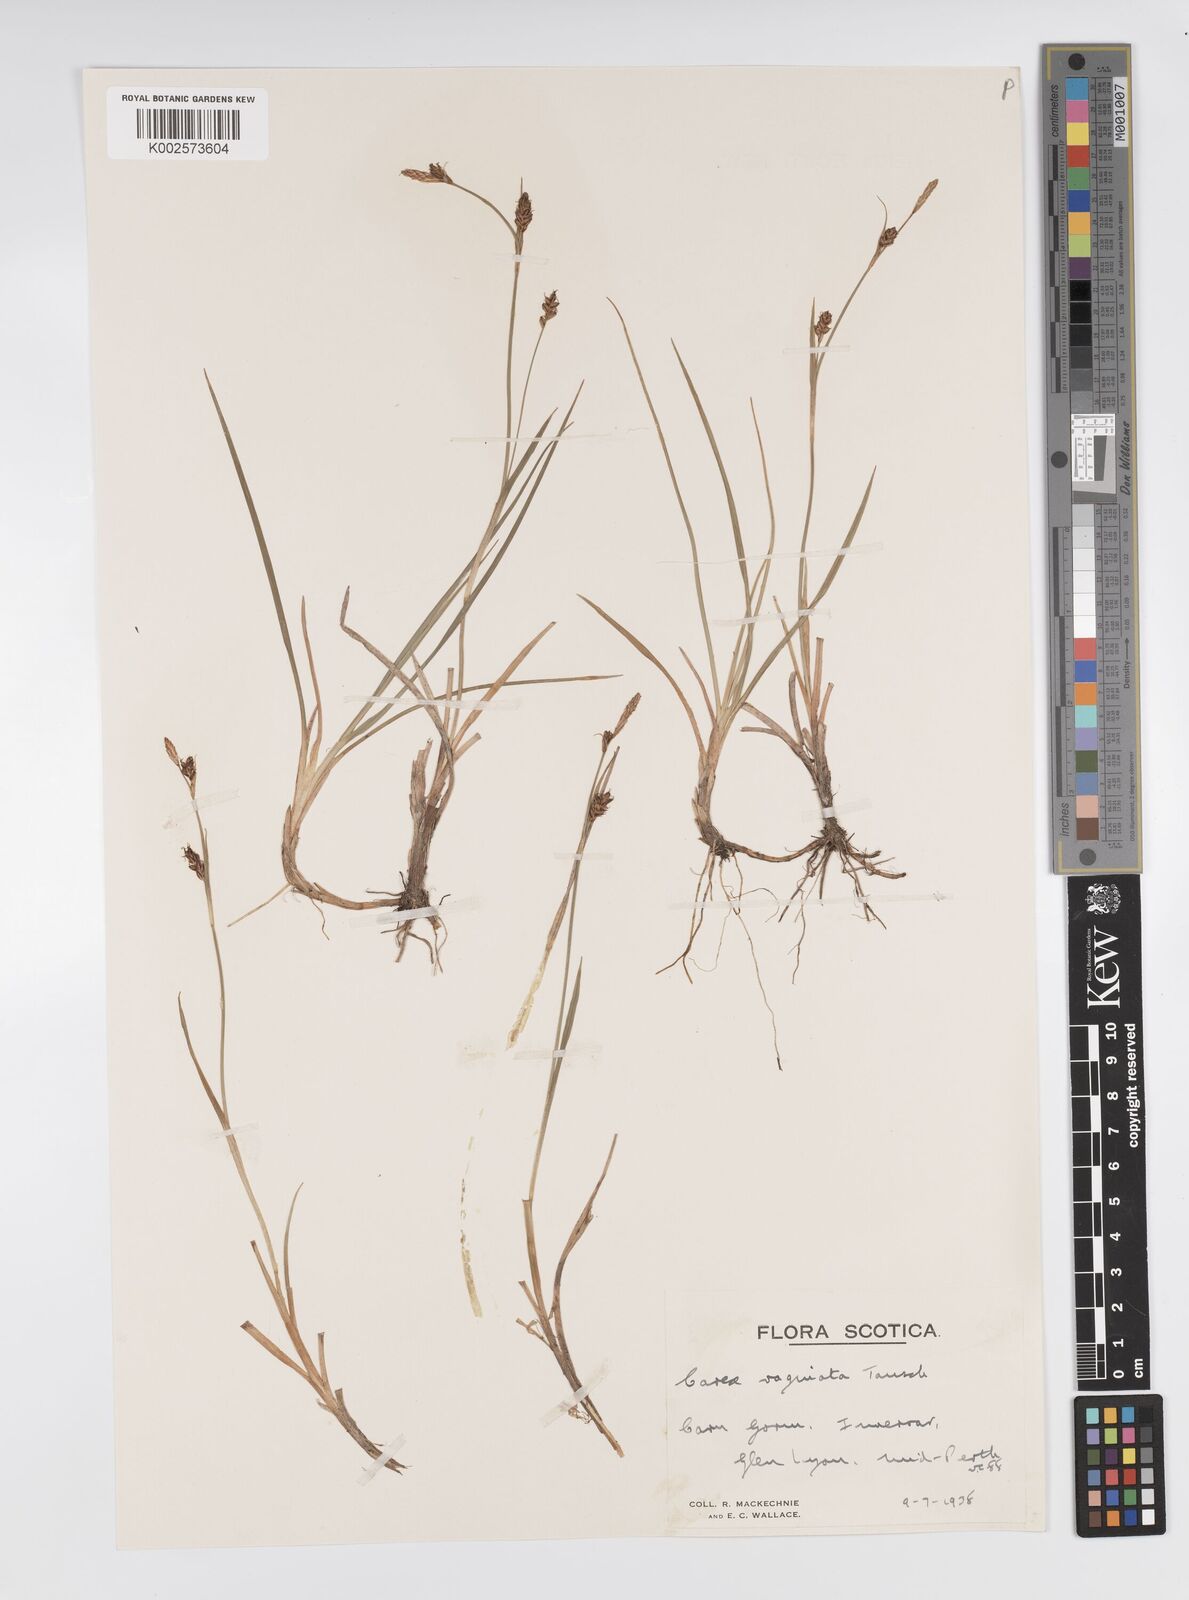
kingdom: Plantae
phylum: Tracheophyta
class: Liliopsida
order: Poales
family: Cyperaceae
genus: Carex
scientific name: Carex panicea
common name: Carnation sedge
